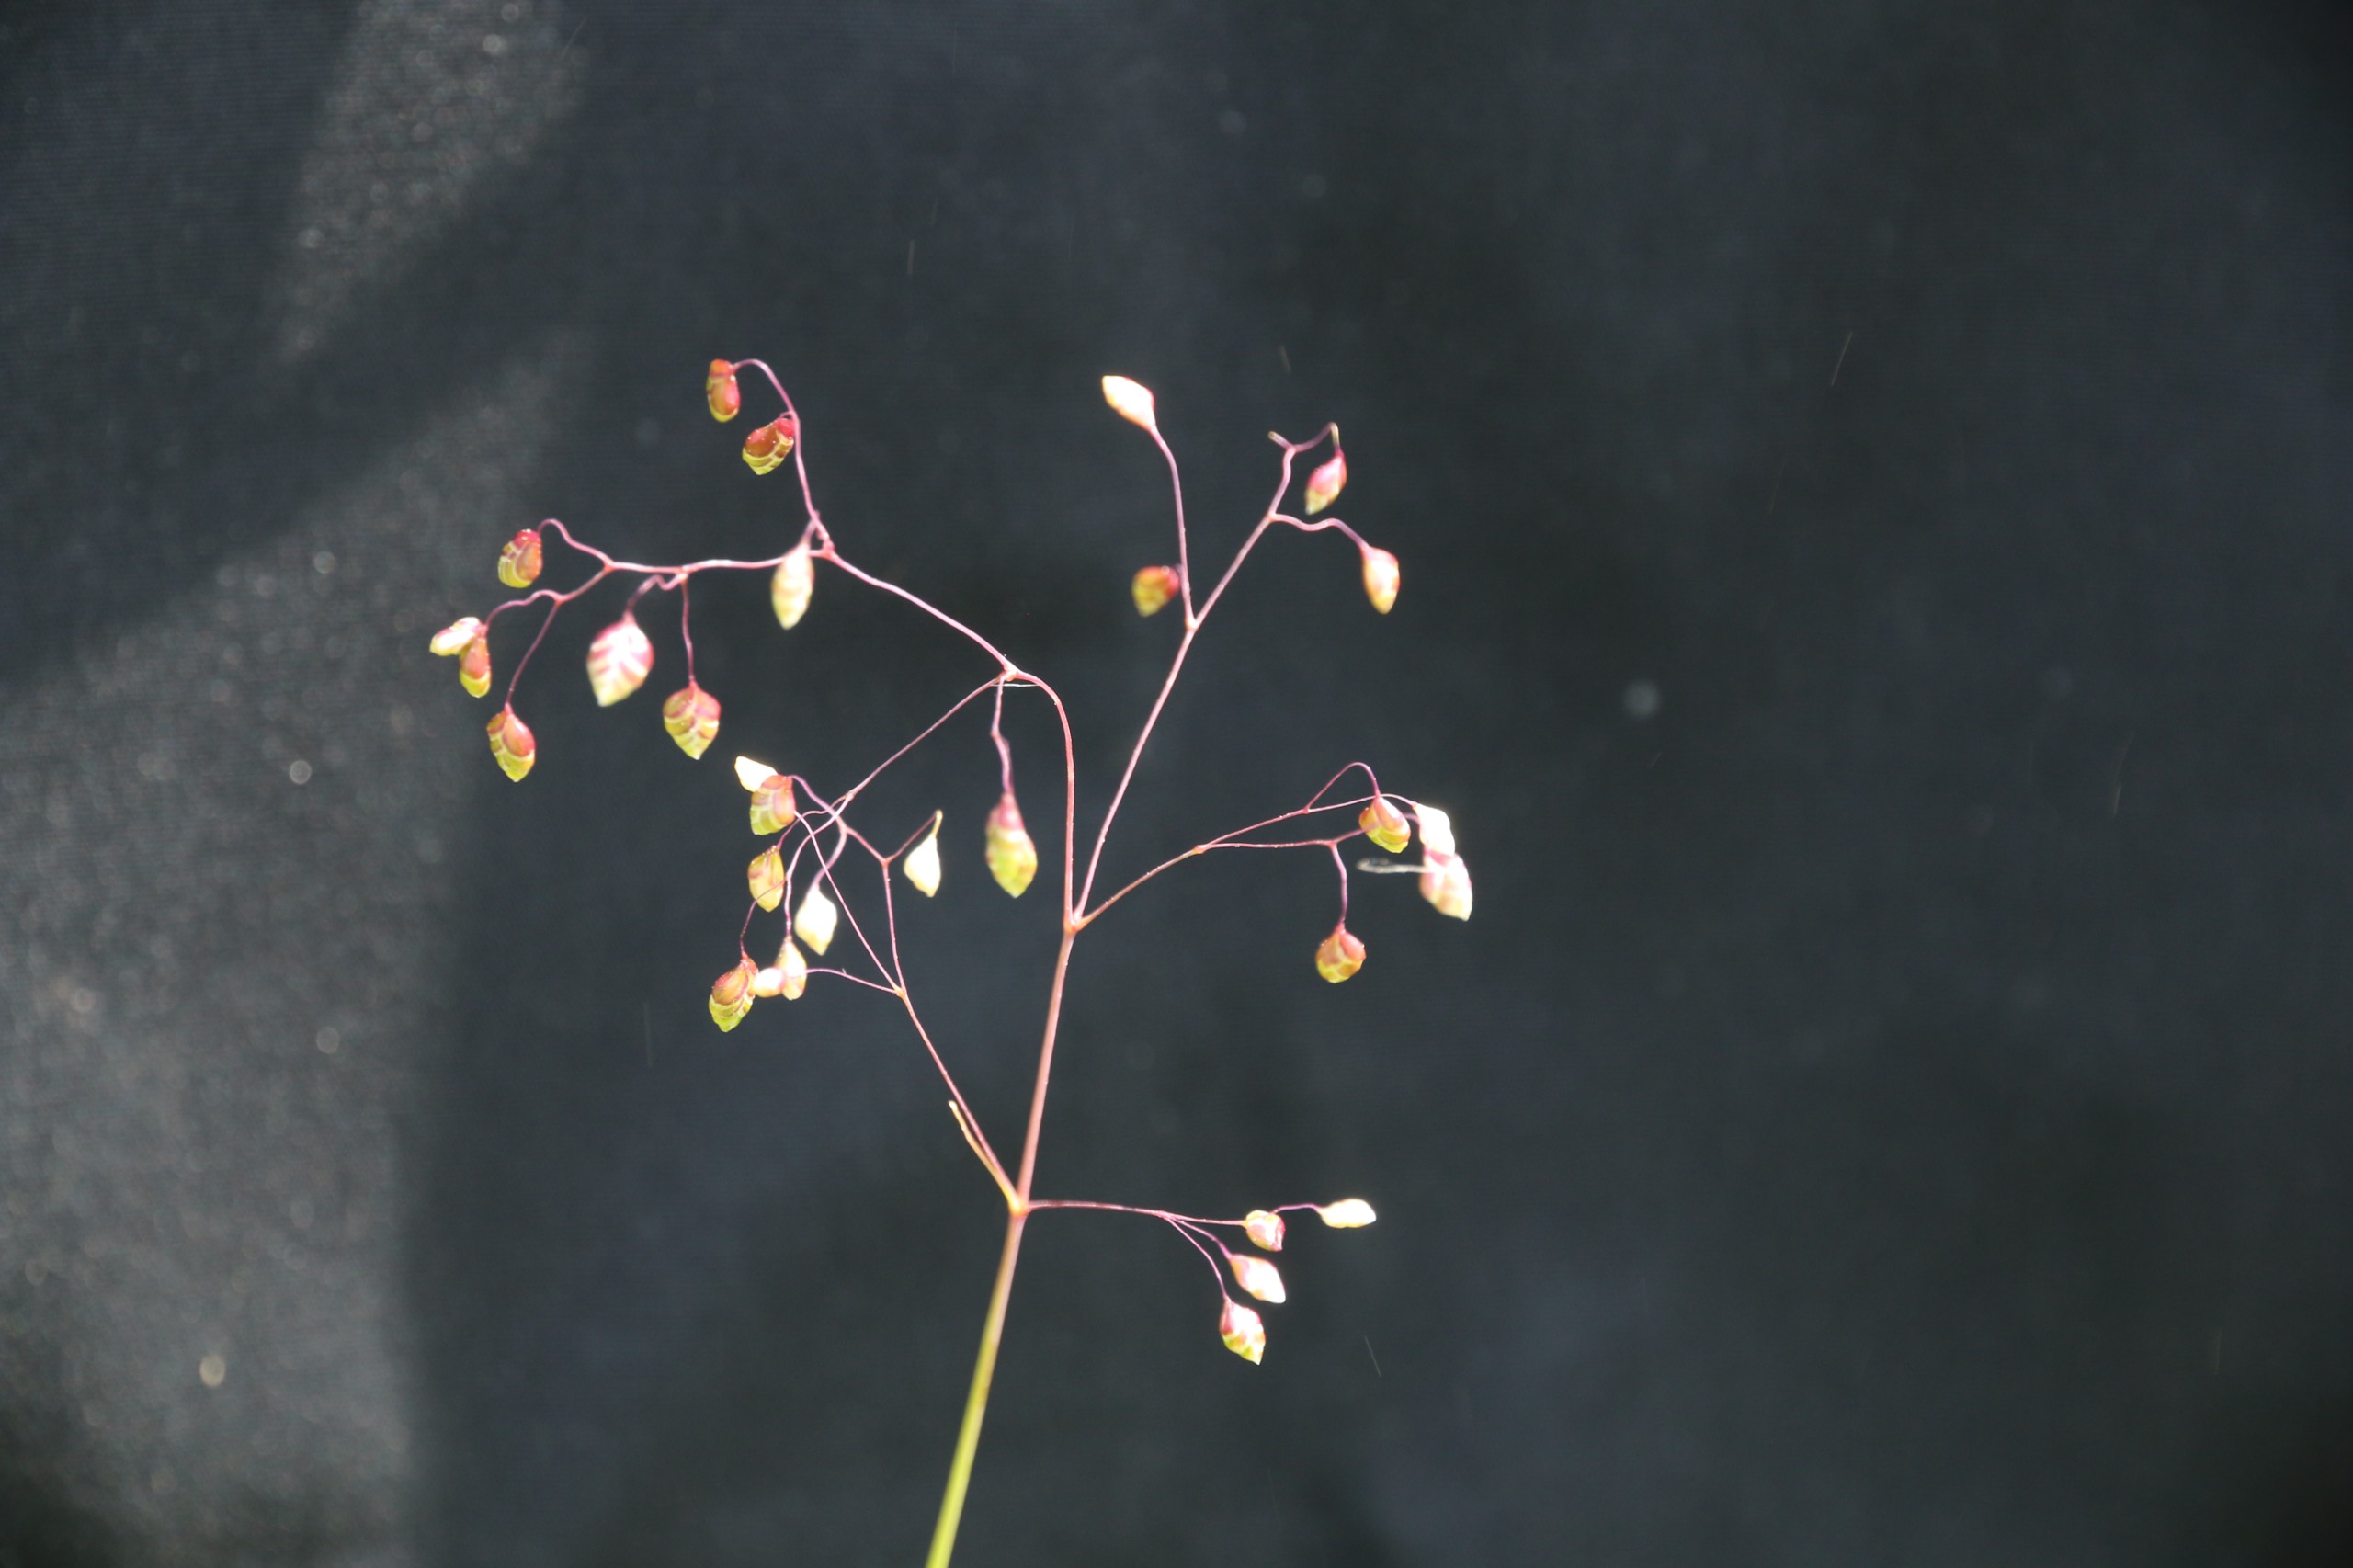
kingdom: Plantae
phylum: Tracheophyta
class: Liliopsida
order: Poales
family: Poaceae
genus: Briza
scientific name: Briza media
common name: Hjertegræs
